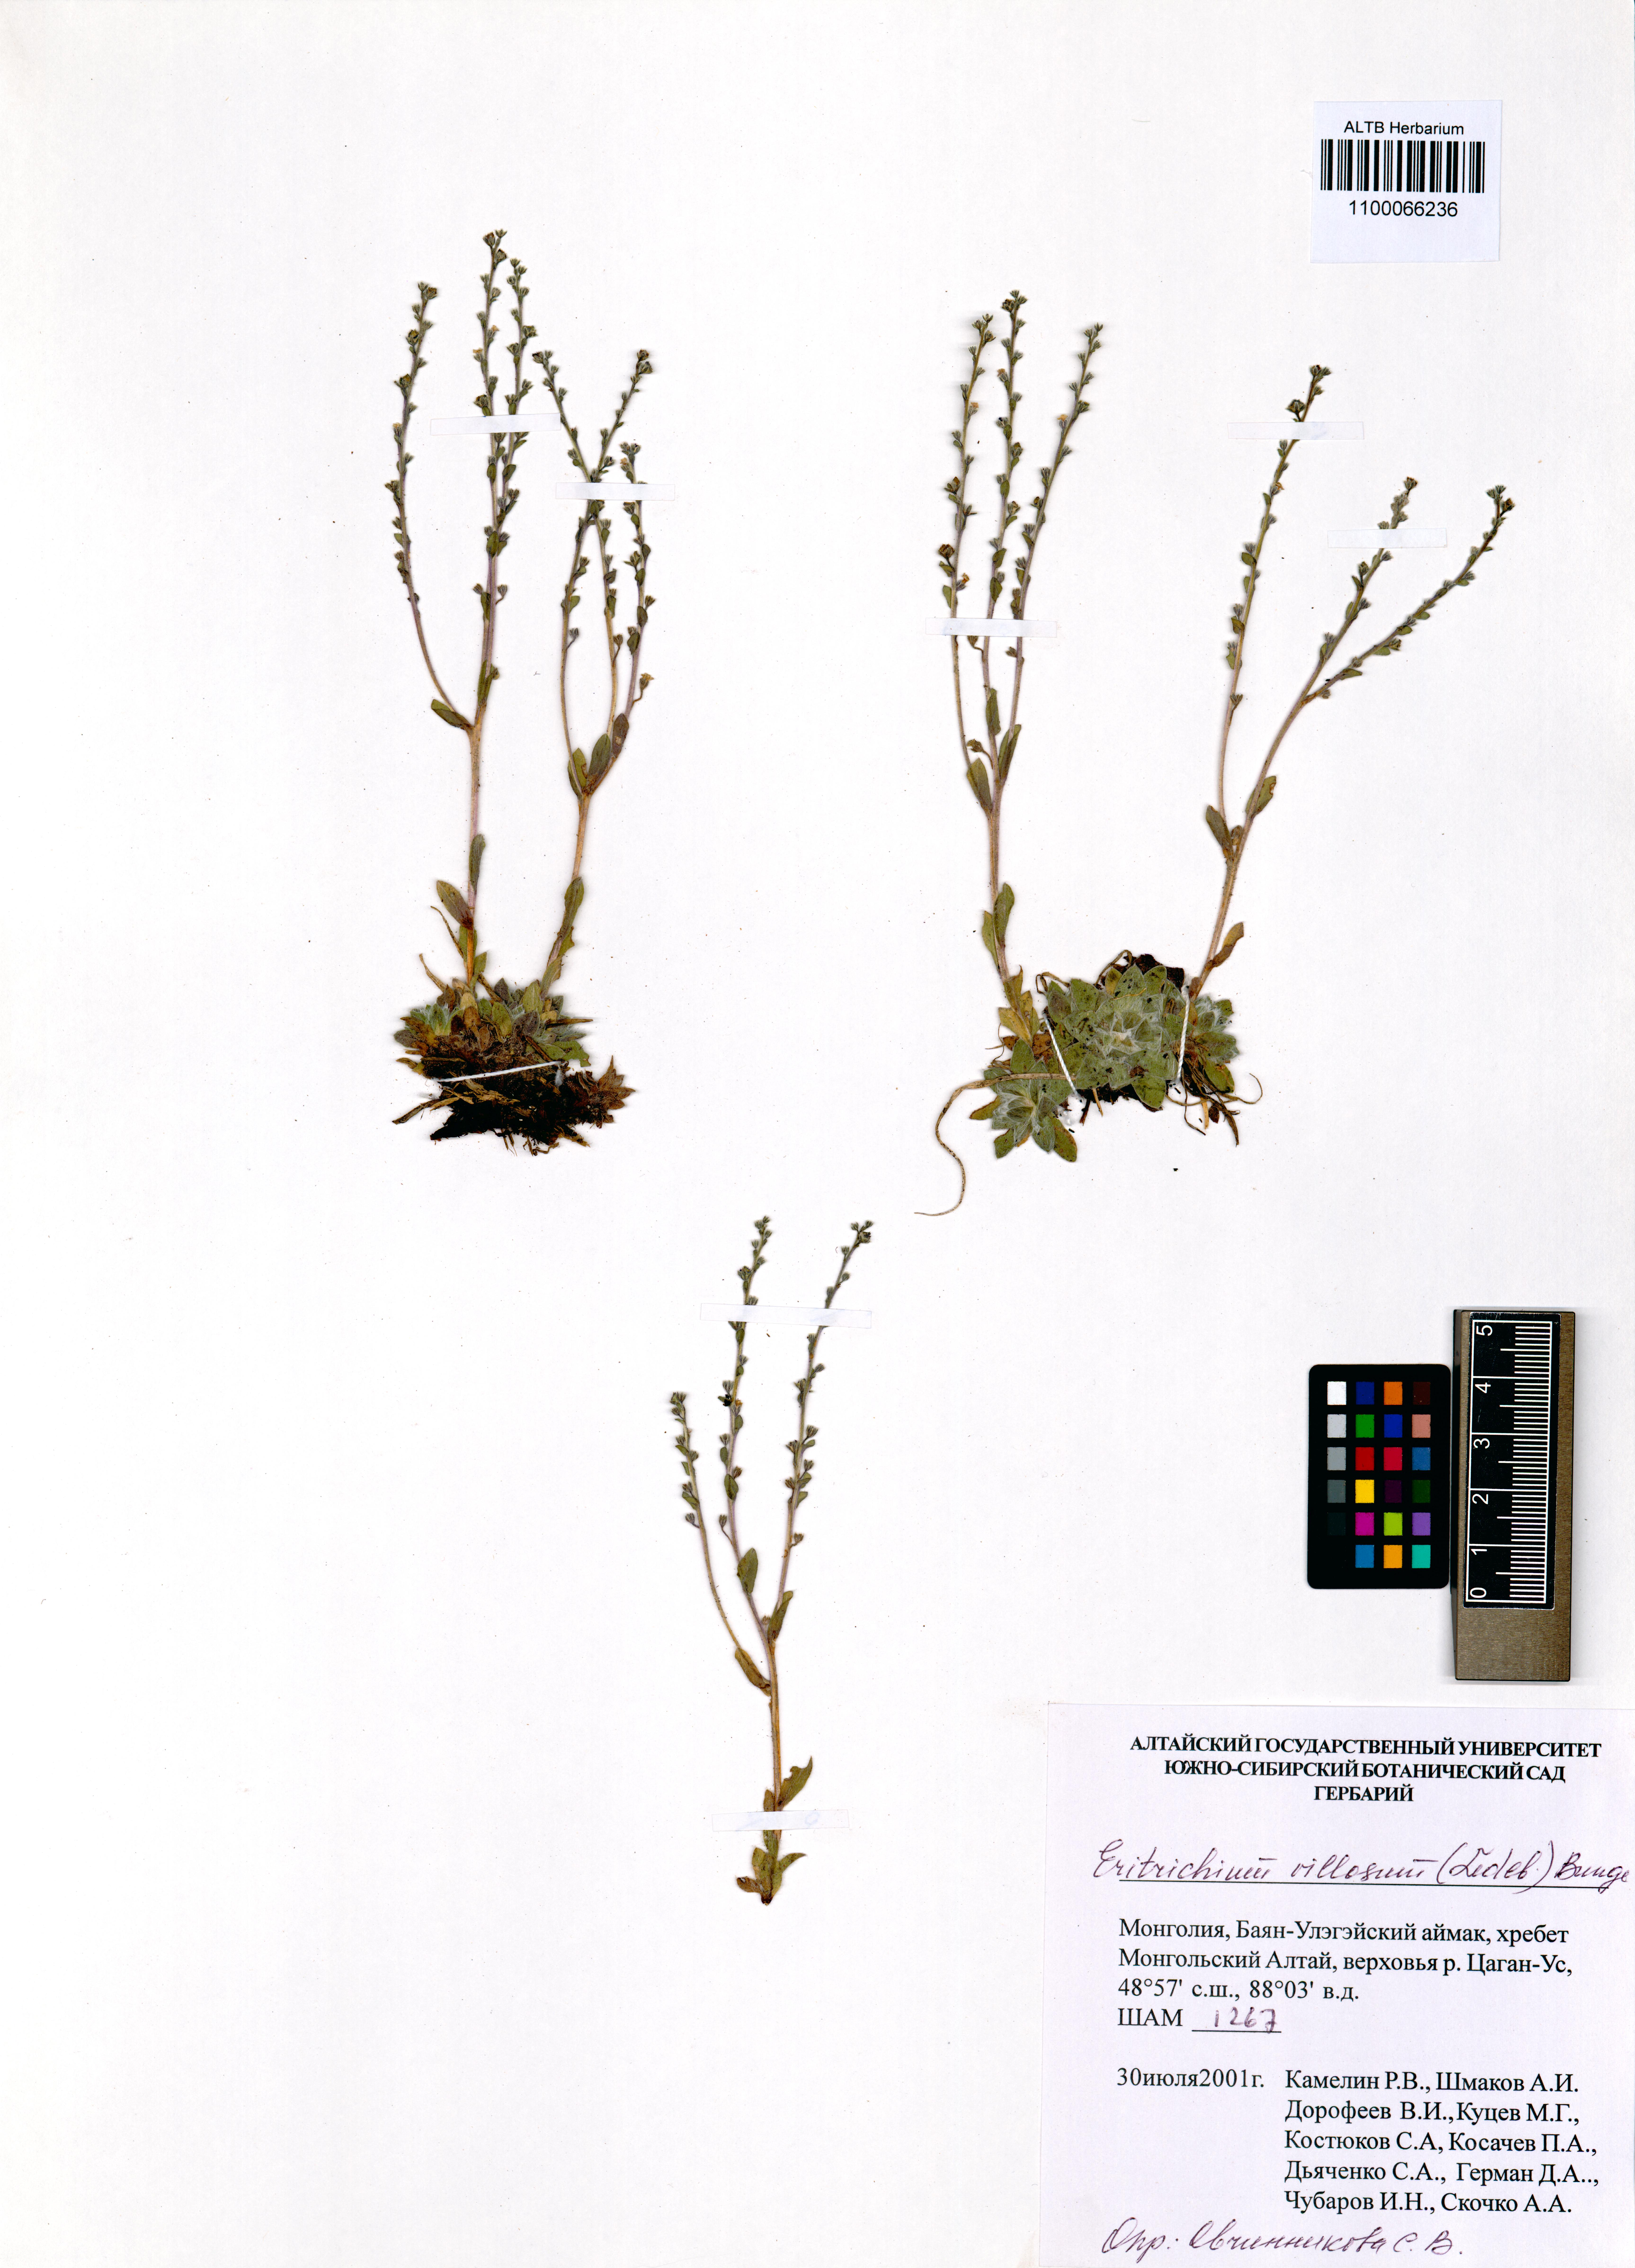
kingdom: Plantae
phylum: Tracheophyta
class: Magnoliopsida
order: Boraginales
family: Boraginaceae
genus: Eritrichium
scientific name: Eritrichium villosum
